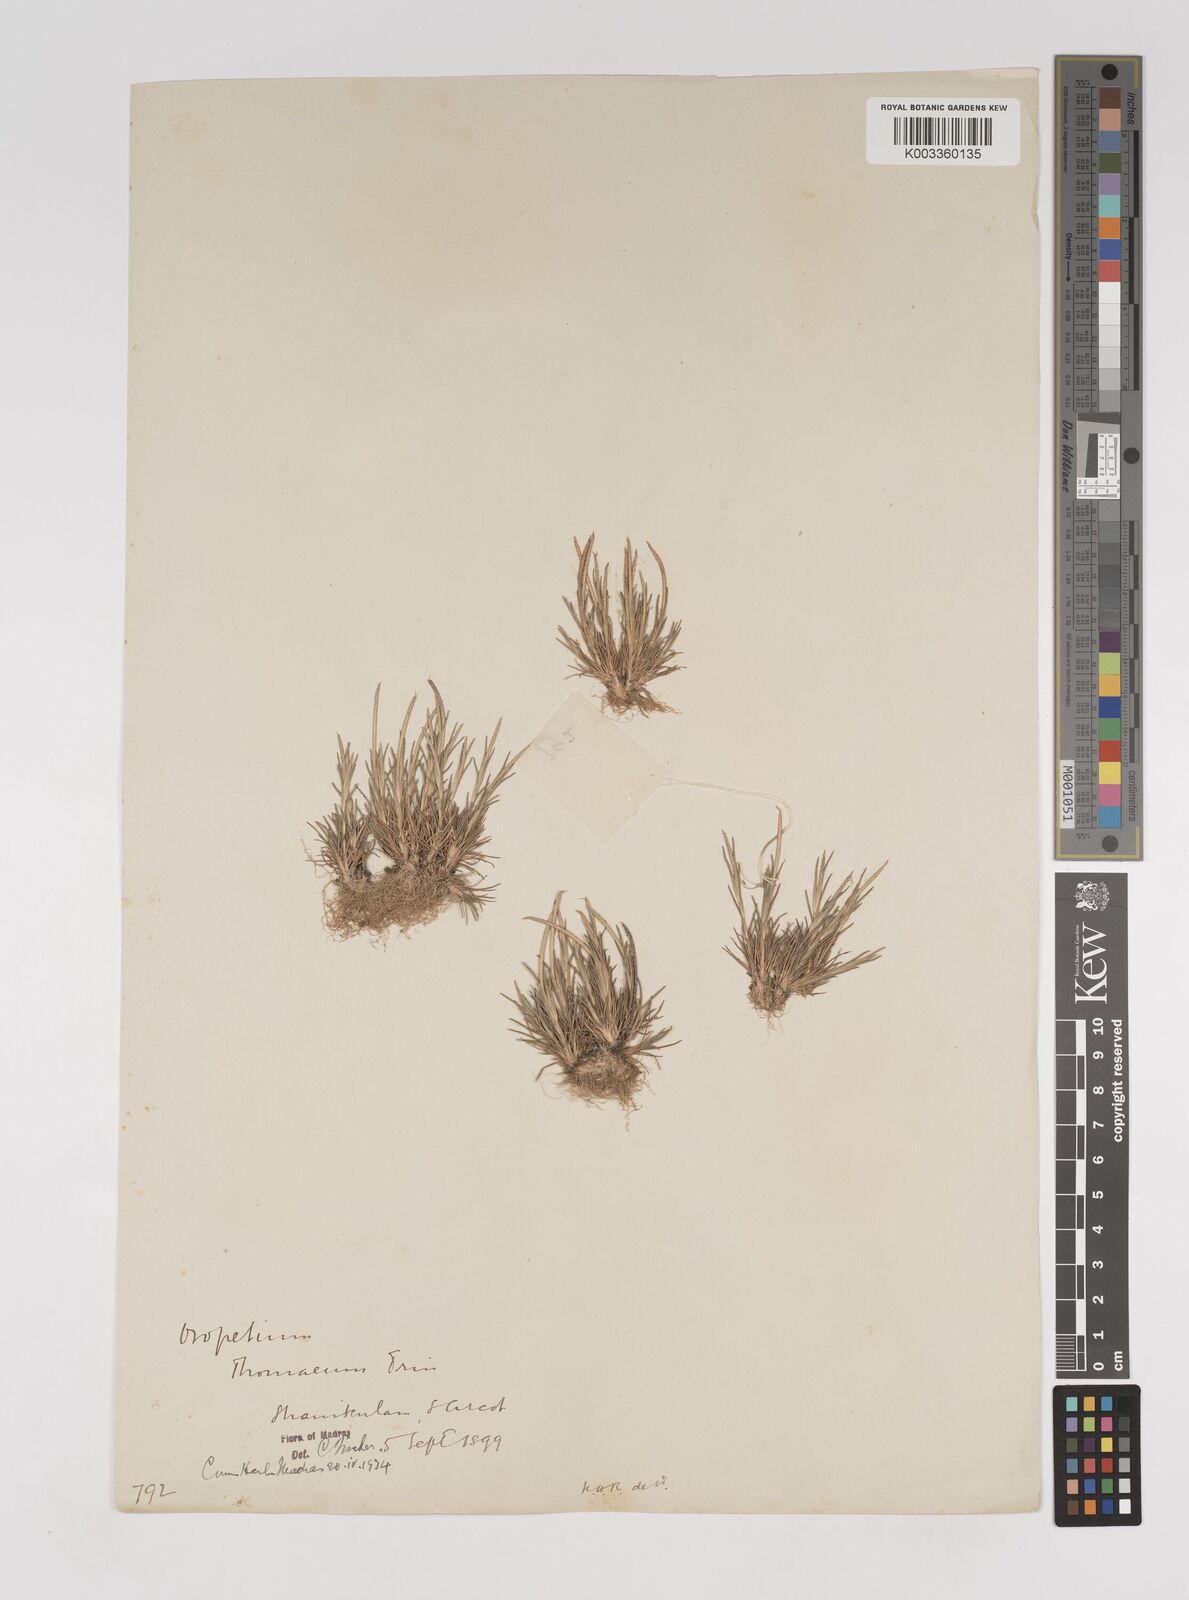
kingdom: Plantae
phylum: Tracheophyta
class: Liliopsida
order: Poales
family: Poaceae
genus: Oropetium
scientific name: Oropetium thomaeum
